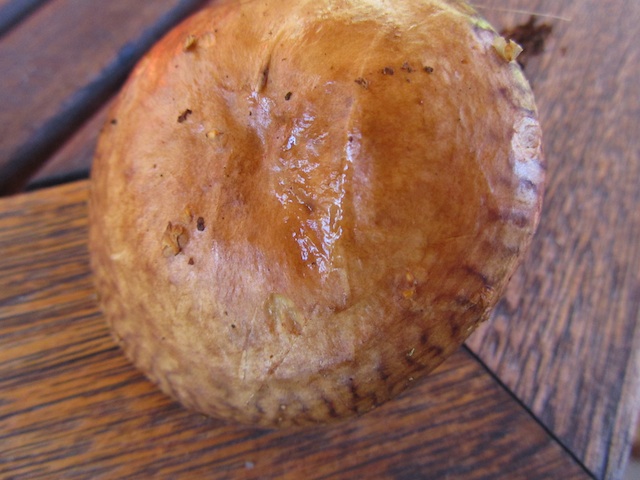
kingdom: Fungi
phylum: Basidiomycota
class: Agaricomycetes
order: Boletales
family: Paxillaceae
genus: Paxillus
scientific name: Paxillus rubicundulus
